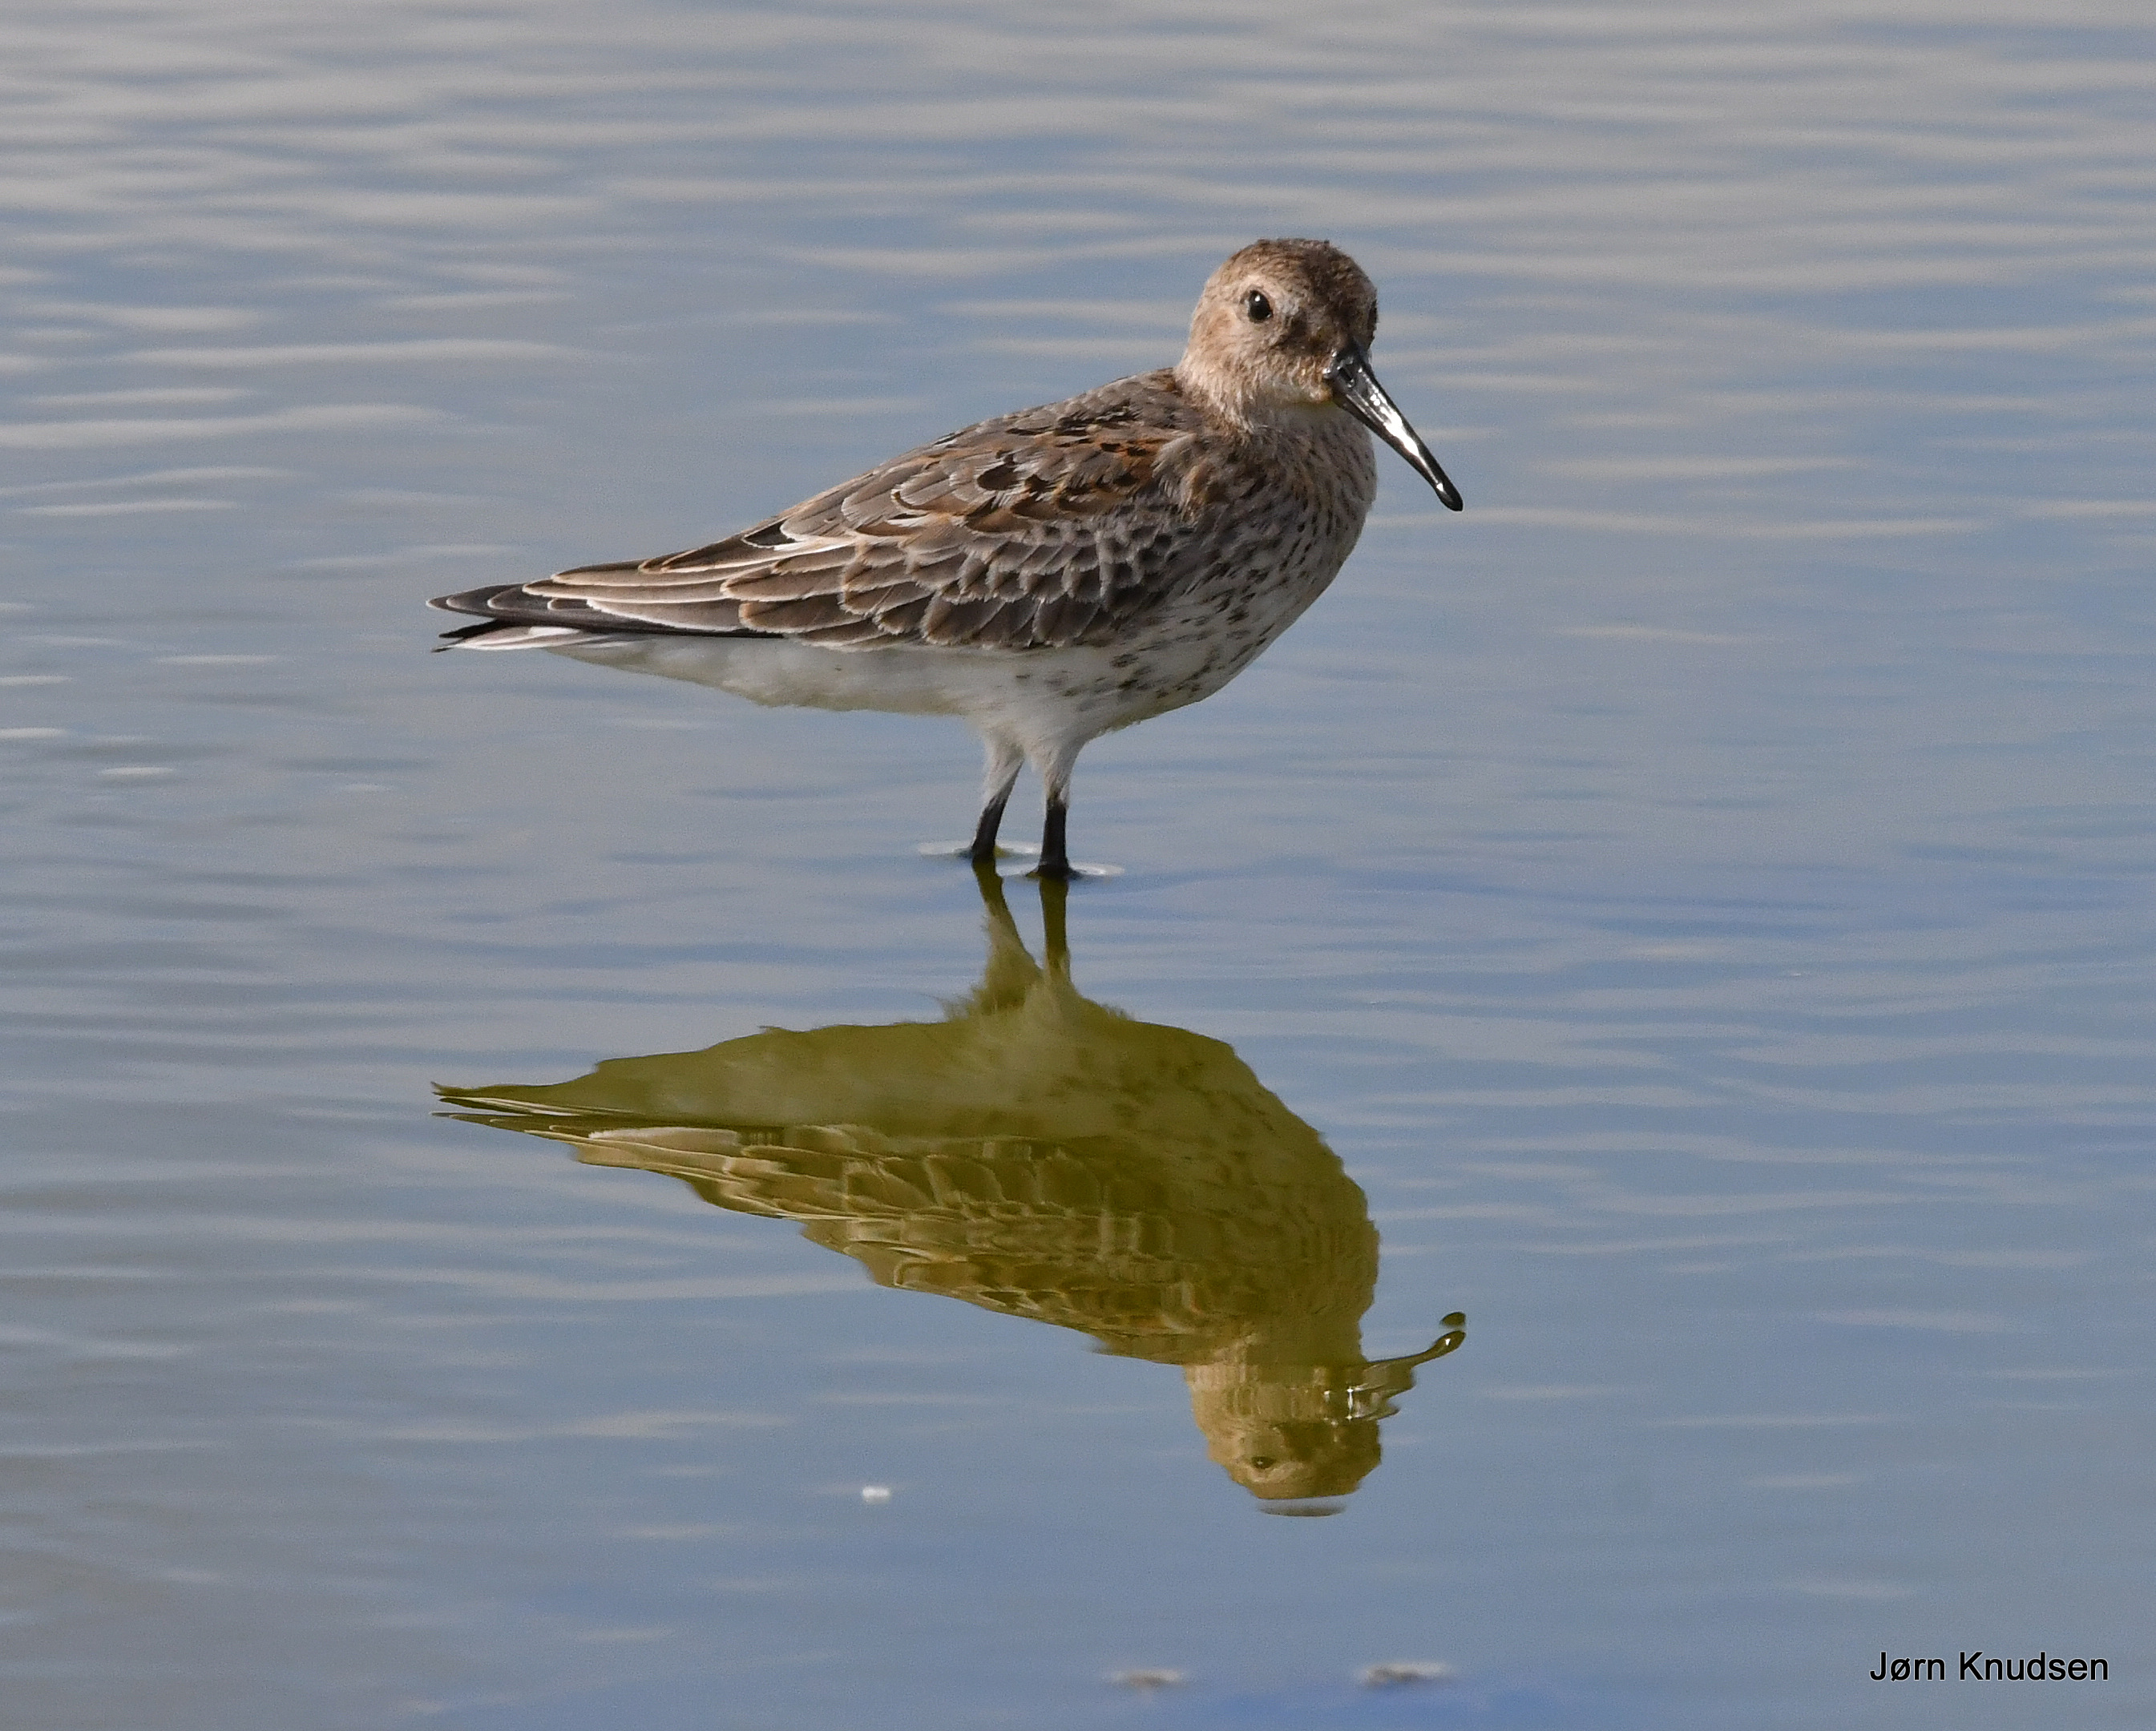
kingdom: Animalia
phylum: Chordata
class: Aves
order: Charadriiformes
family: Scolopacidae
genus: Calidris
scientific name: Calidris alpina
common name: Almindelig ryle
